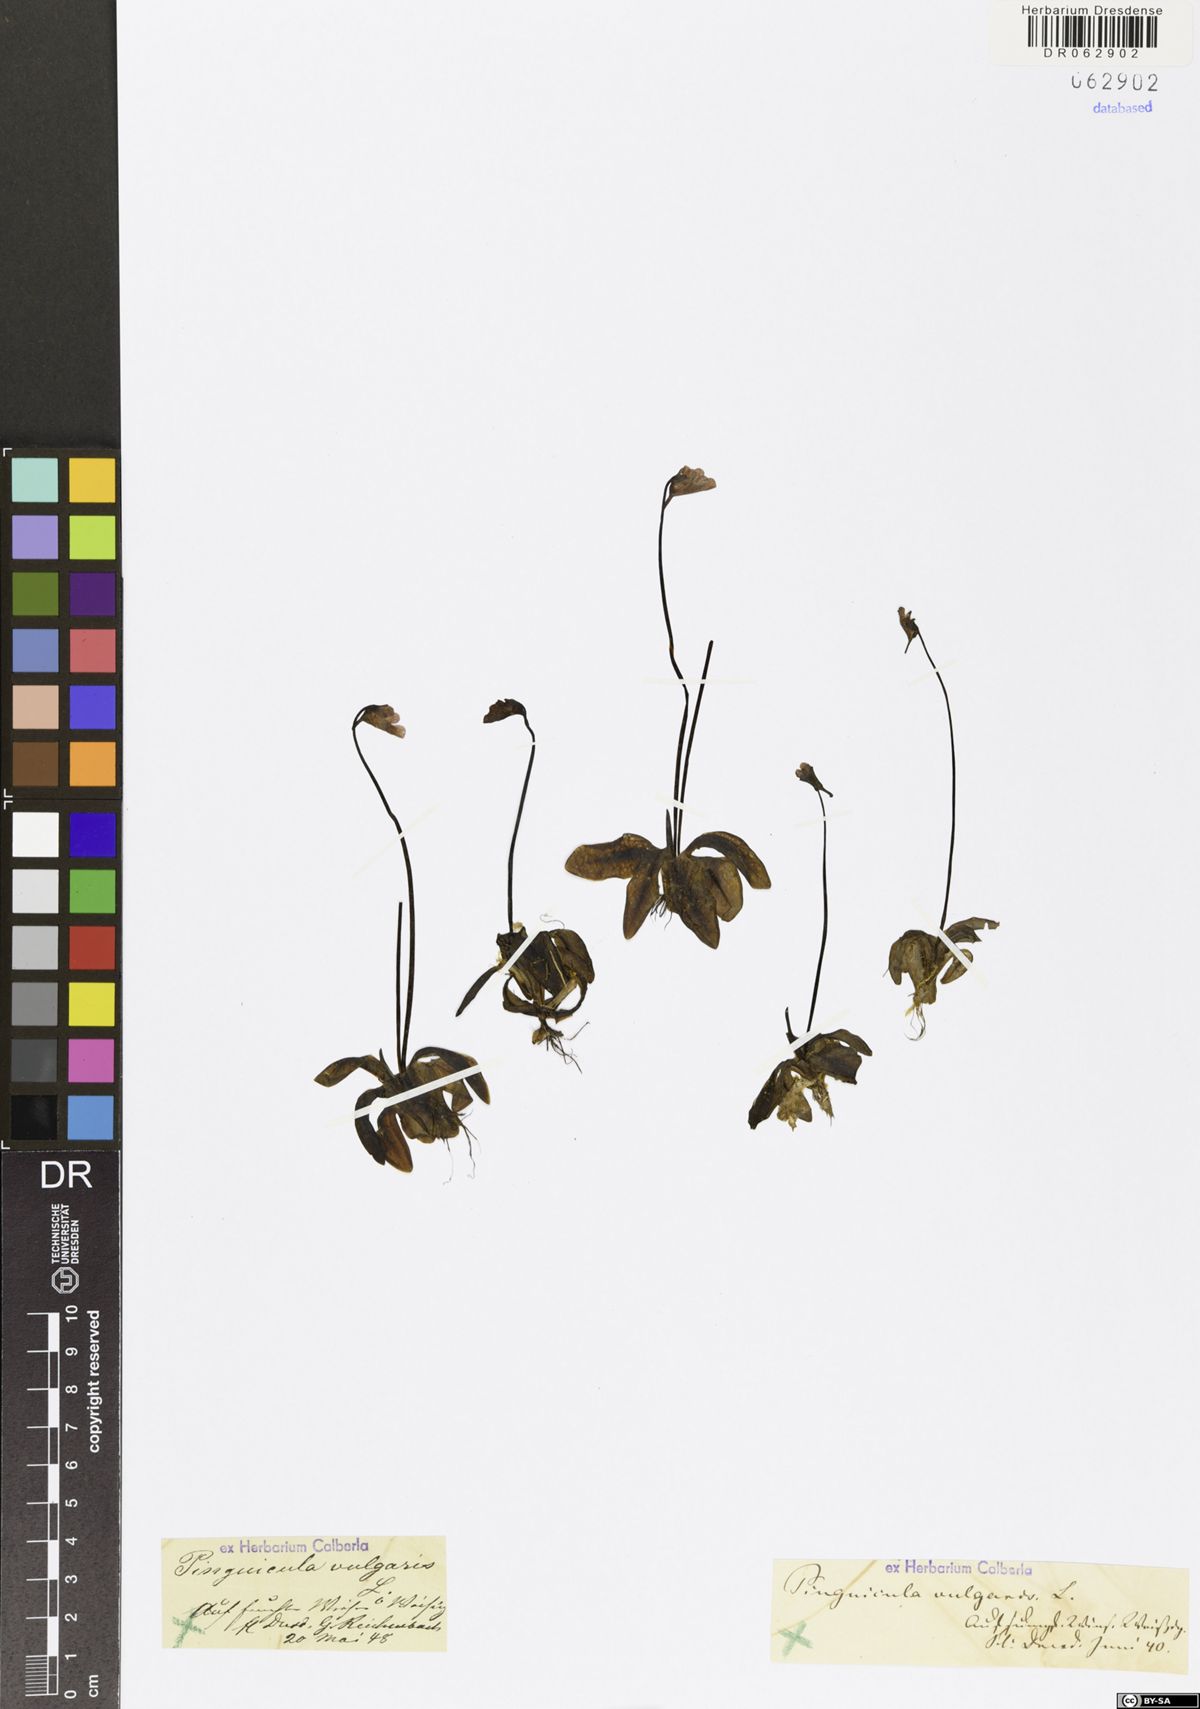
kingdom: Plantae
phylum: Tracheophyta
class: Magnoliopsida
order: Lamiales
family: Lentibulariaceae
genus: Pinguicula
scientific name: Pinguicula vulgaris
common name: Common butterwort
